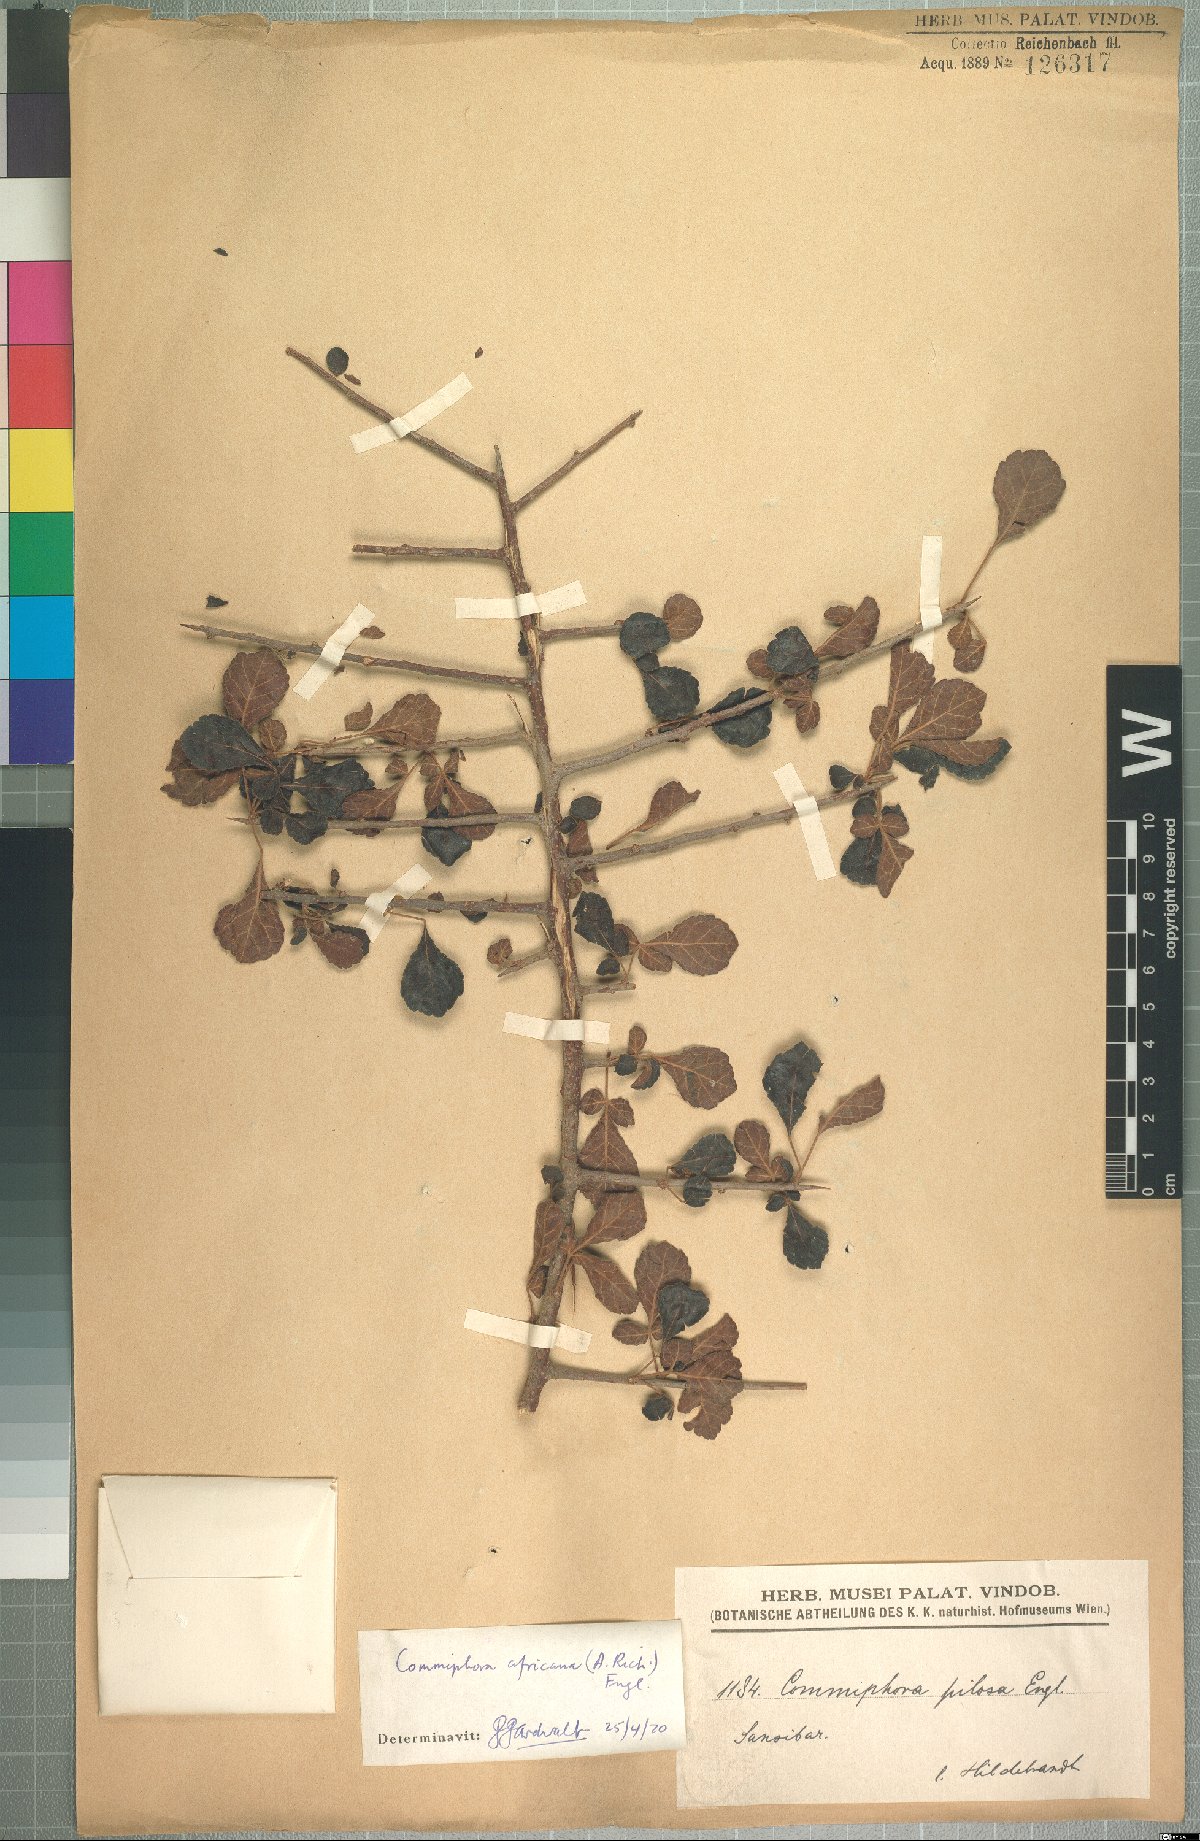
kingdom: Plantae
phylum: Tracheophyta
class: Magnoliopsida
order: Sapindales
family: Burseraceae
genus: Commiphora
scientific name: Commiphora africana
